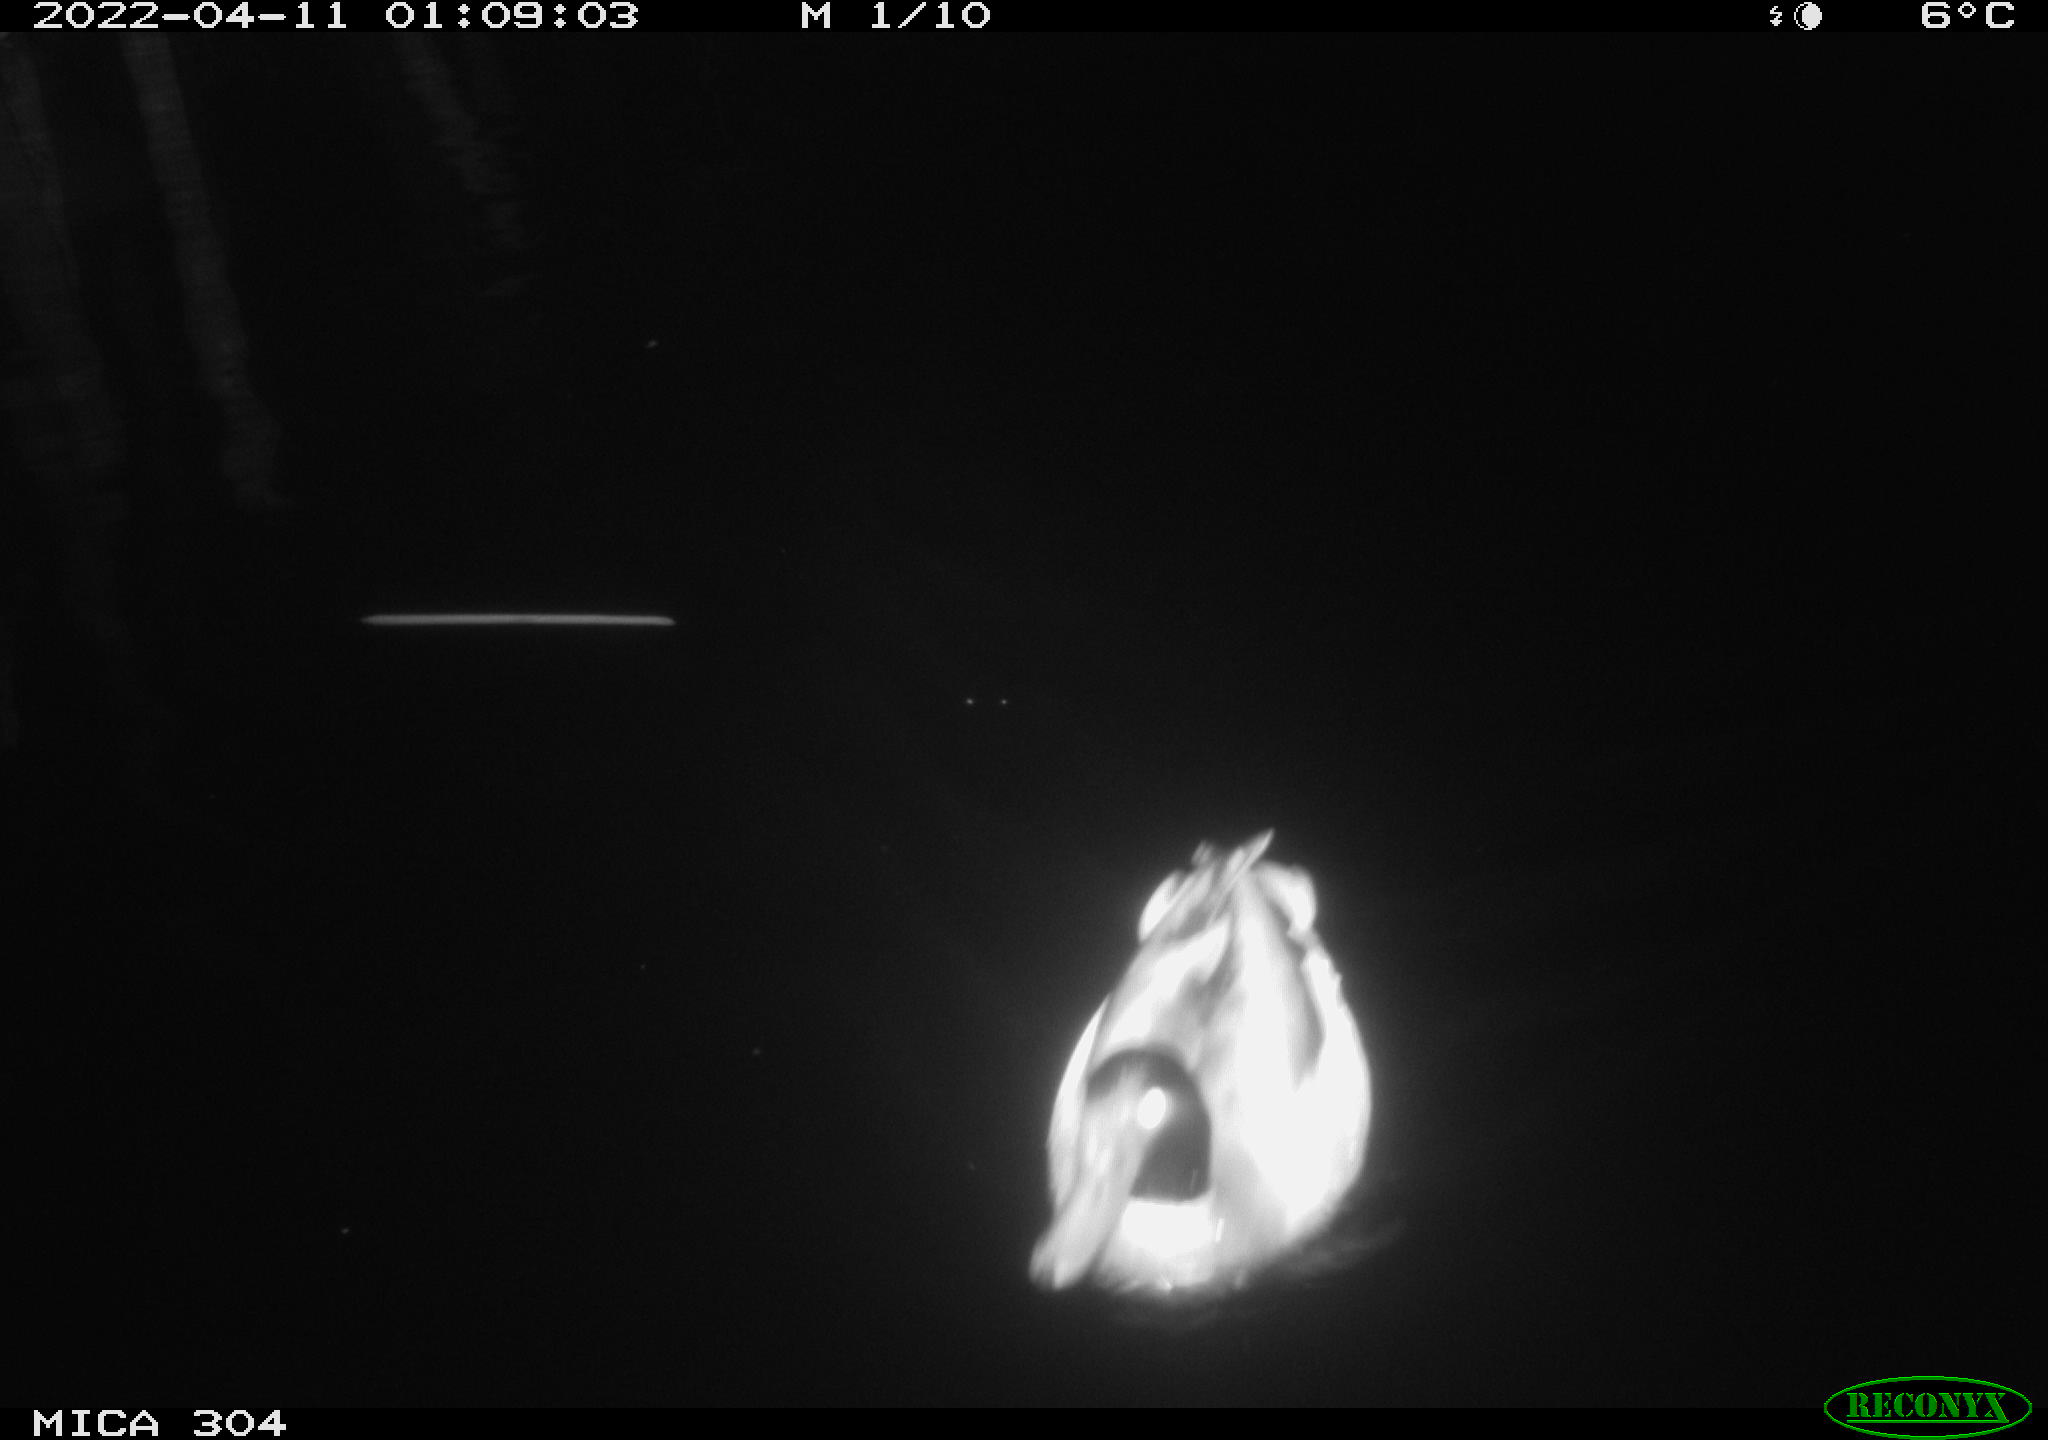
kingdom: Animalia
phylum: Chordata
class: Aves
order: Anseriformes
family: Anatidae
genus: Anas
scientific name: Anas platyrhynchos
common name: Mallard
